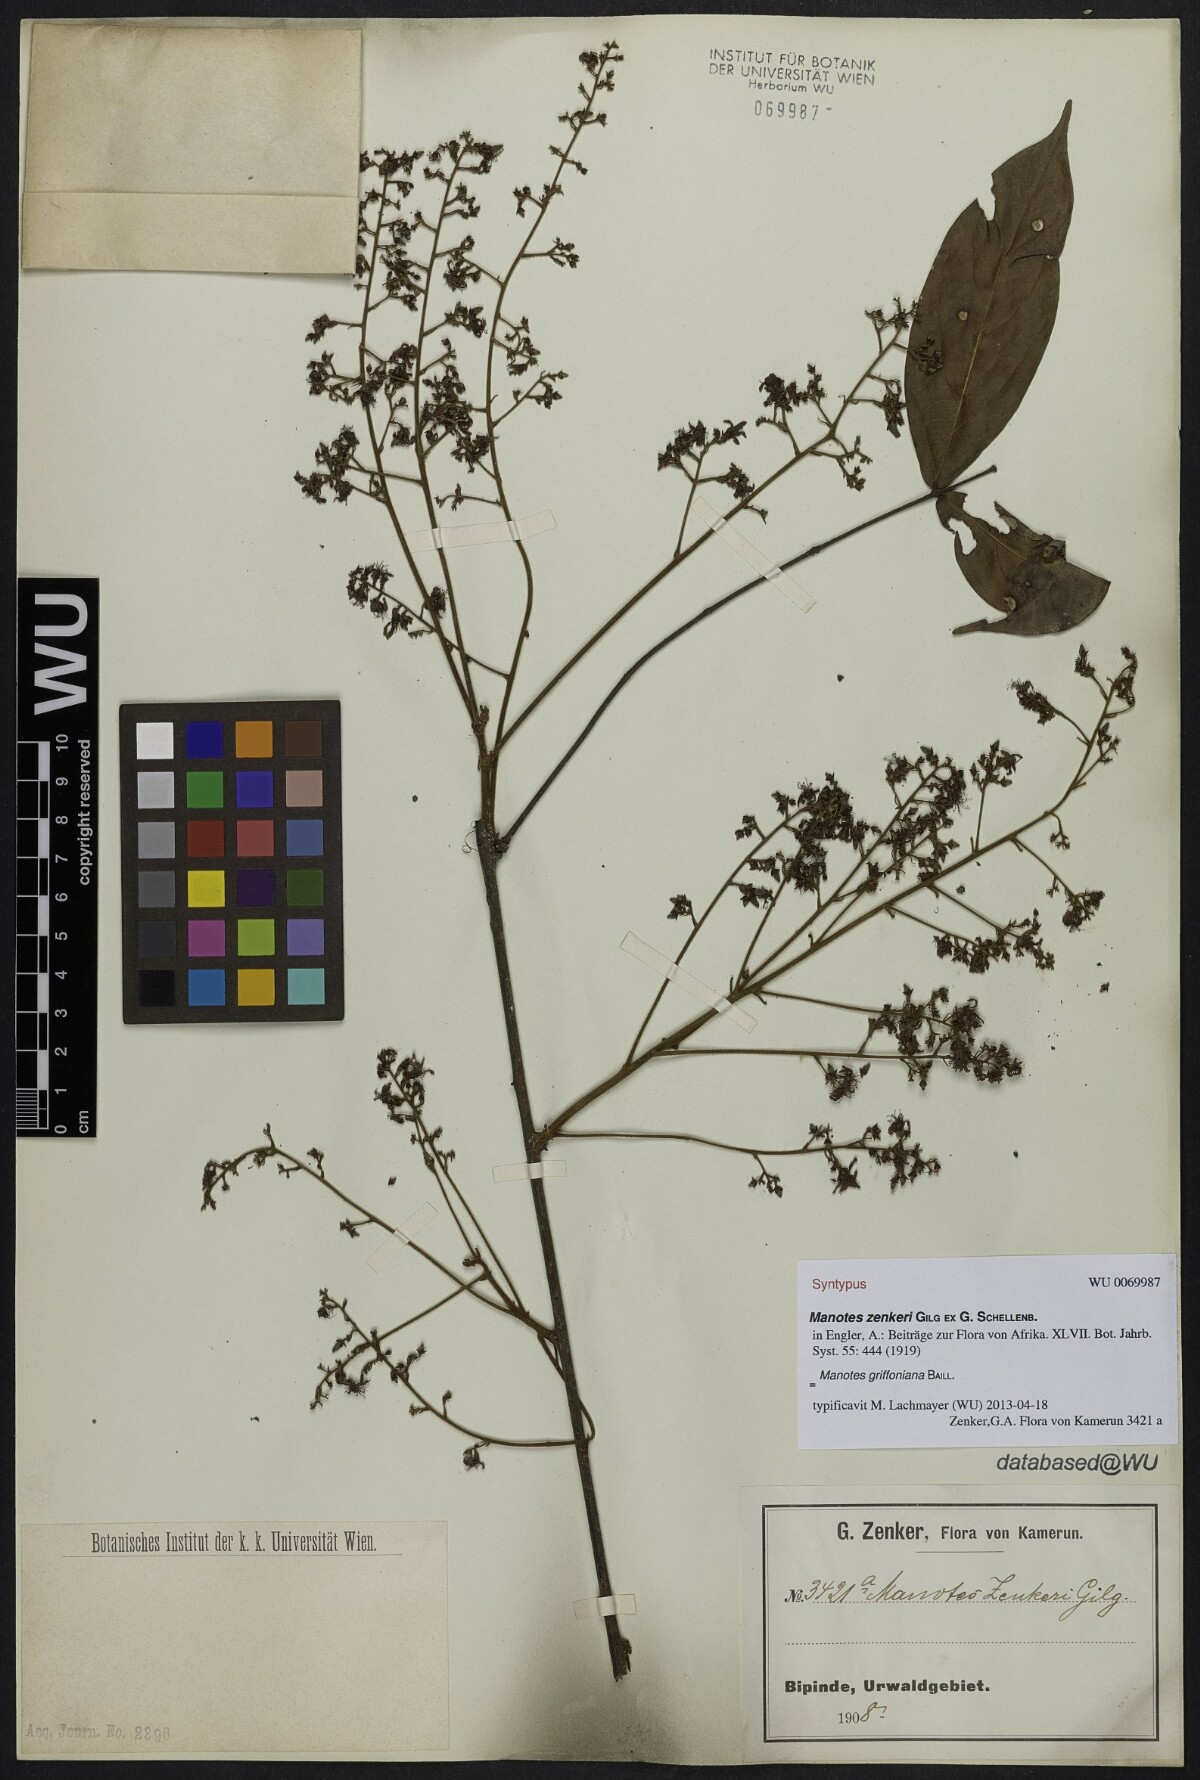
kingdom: Plantae
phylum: Tracheophyta
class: Magnoliopsida
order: Oxalidales
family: Connaraceae
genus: Manotes
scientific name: Manotes griffoniana
